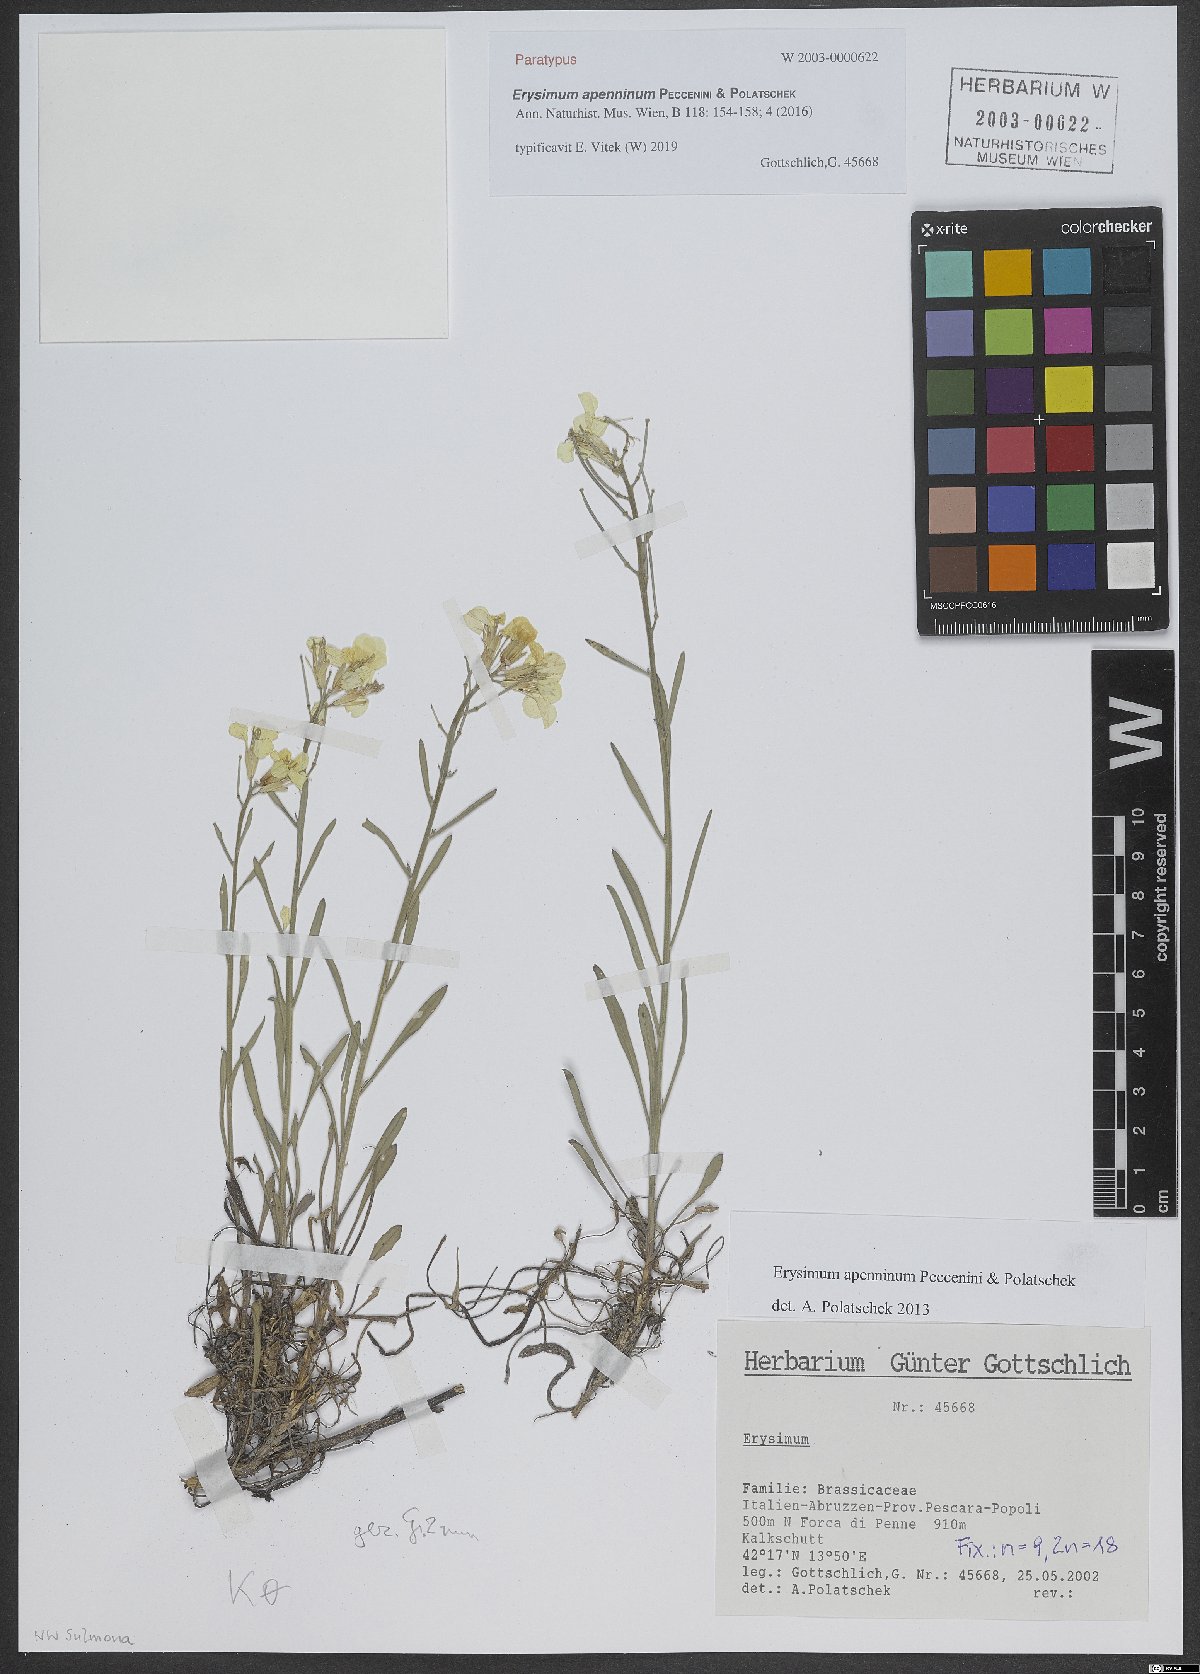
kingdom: Plantae
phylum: Tracheophyta
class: Magnoliopsida
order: Brassicales
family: Brassicaceae
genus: Erysimum
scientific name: Erysimum apenninum
